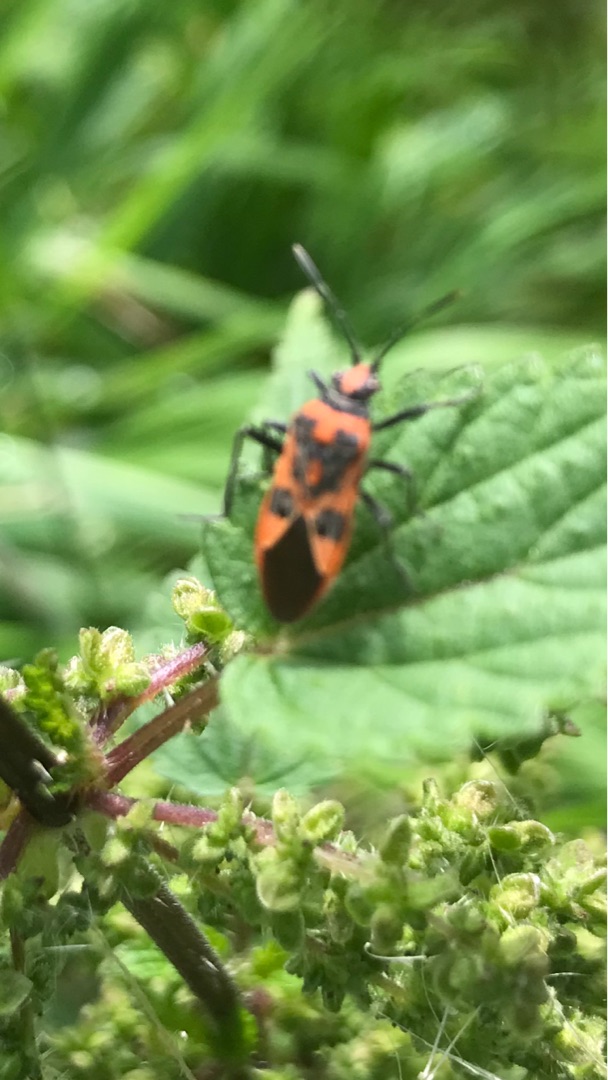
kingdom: Animalia
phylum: Arthropoda
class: Insecta
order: Hemiptera
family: Rhopalidae
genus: Corizus
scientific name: Corizus hyoscyami
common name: Rød kanttæge
